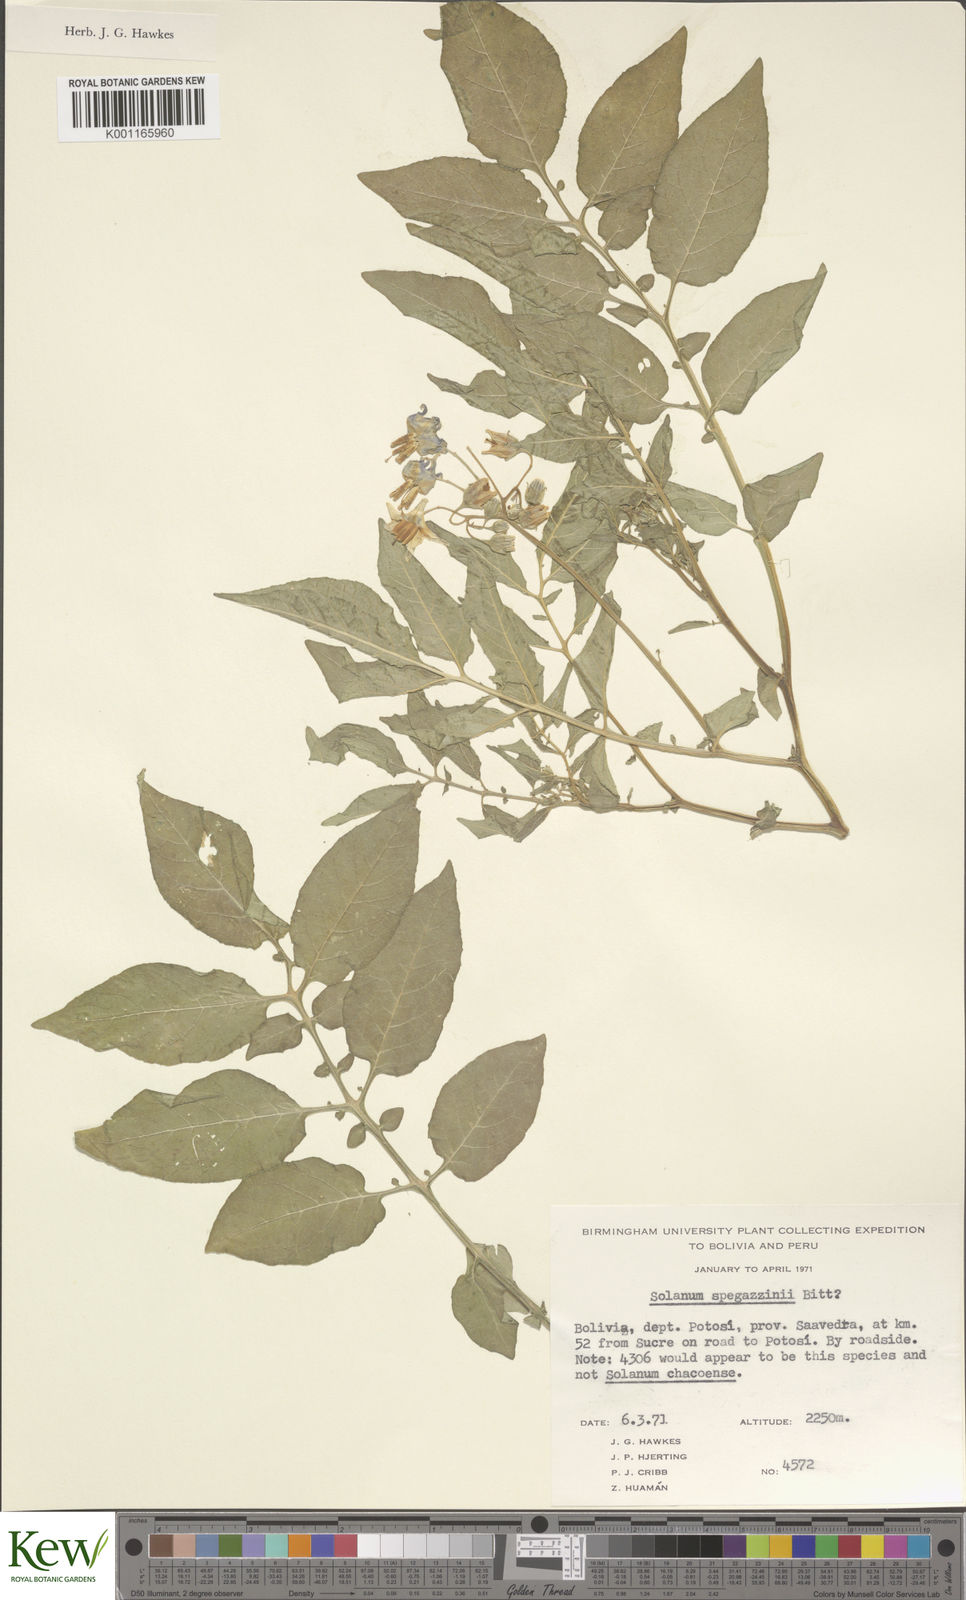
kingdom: Plantae
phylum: Tracheophyta
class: Magnoliopsida
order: Solanales
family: Solanaceae
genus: Solanum
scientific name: Solanum brevicaule
